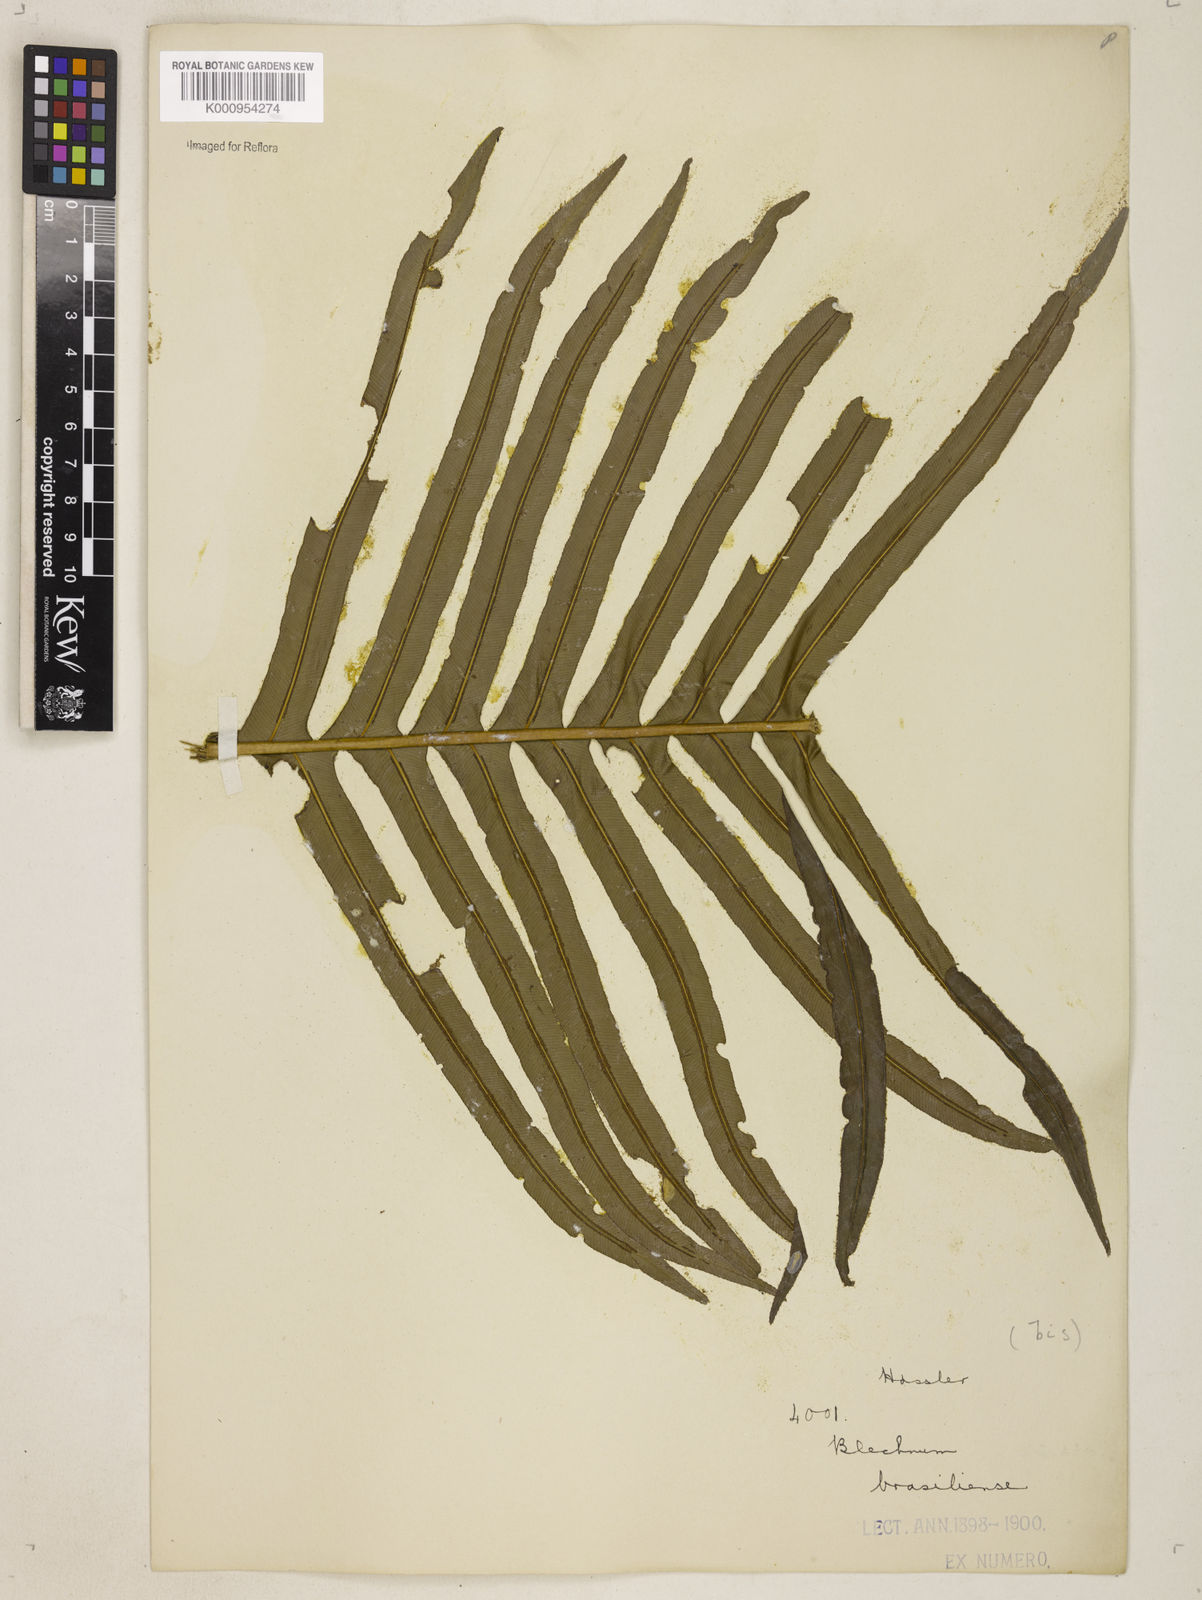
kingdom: Plantae
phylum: Tracheophyta
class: Polypodiopsida
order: Polypodiales
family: Blechnaceae
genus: Neoblechnum
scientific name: Neoblechnum brasiliense
